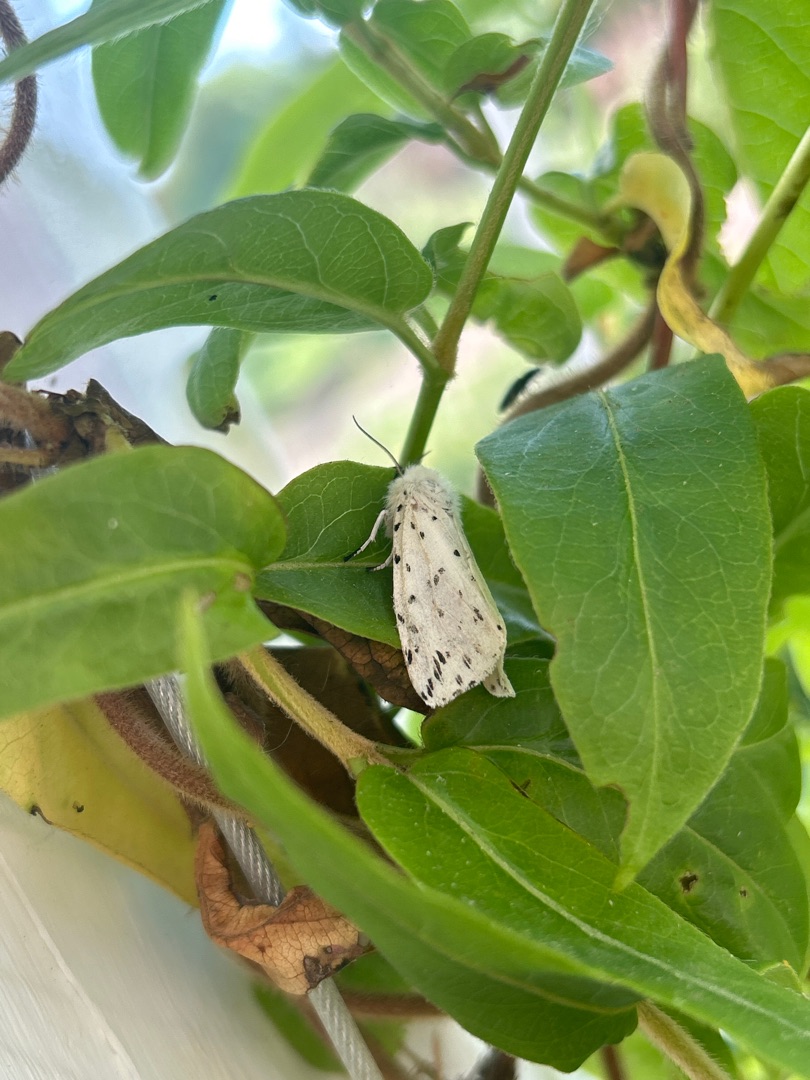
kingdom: Animalia
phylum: Arthropoda
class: Insecta
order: Lepidoptera
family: Erebidae
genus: Spilosoma
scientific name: Spilosoma lubricipeda
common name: Almindelig tigerspinder
